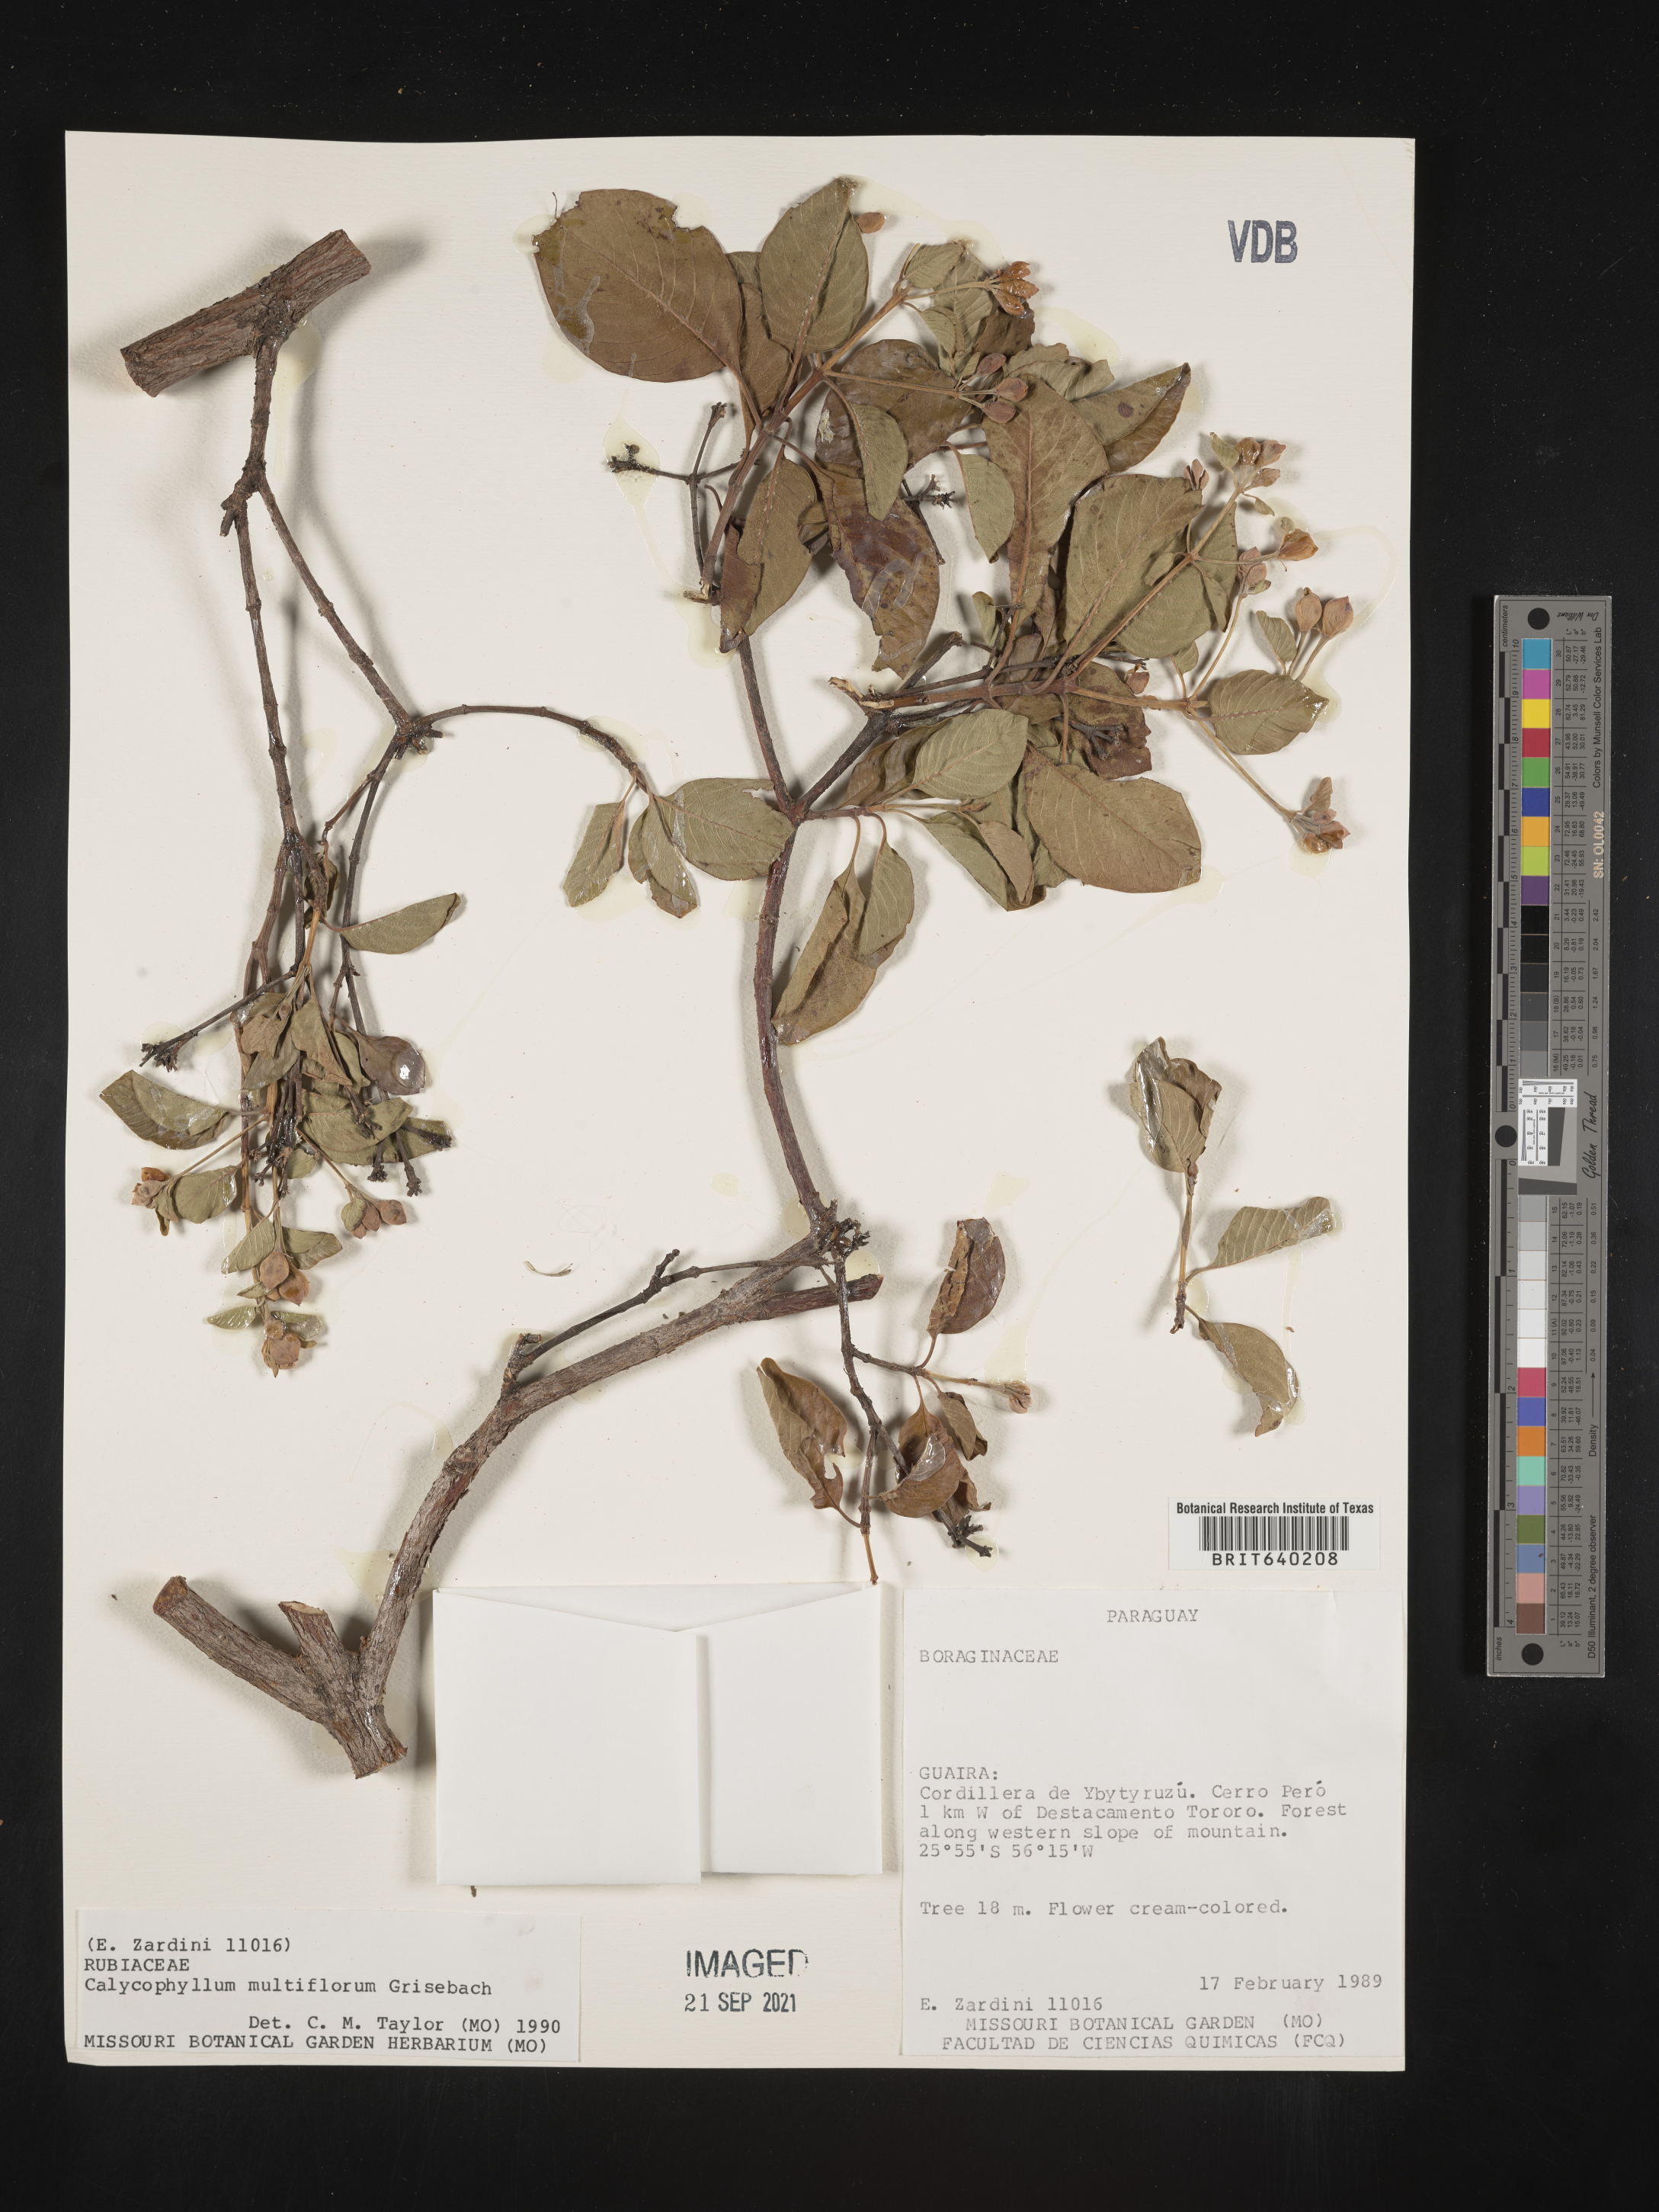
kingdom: Plantae
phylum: Tracheophyta
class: Magnoliopsida
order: Gentianales
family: Rubiaceae
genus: Calycophyllum
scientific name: Calycophyllum
